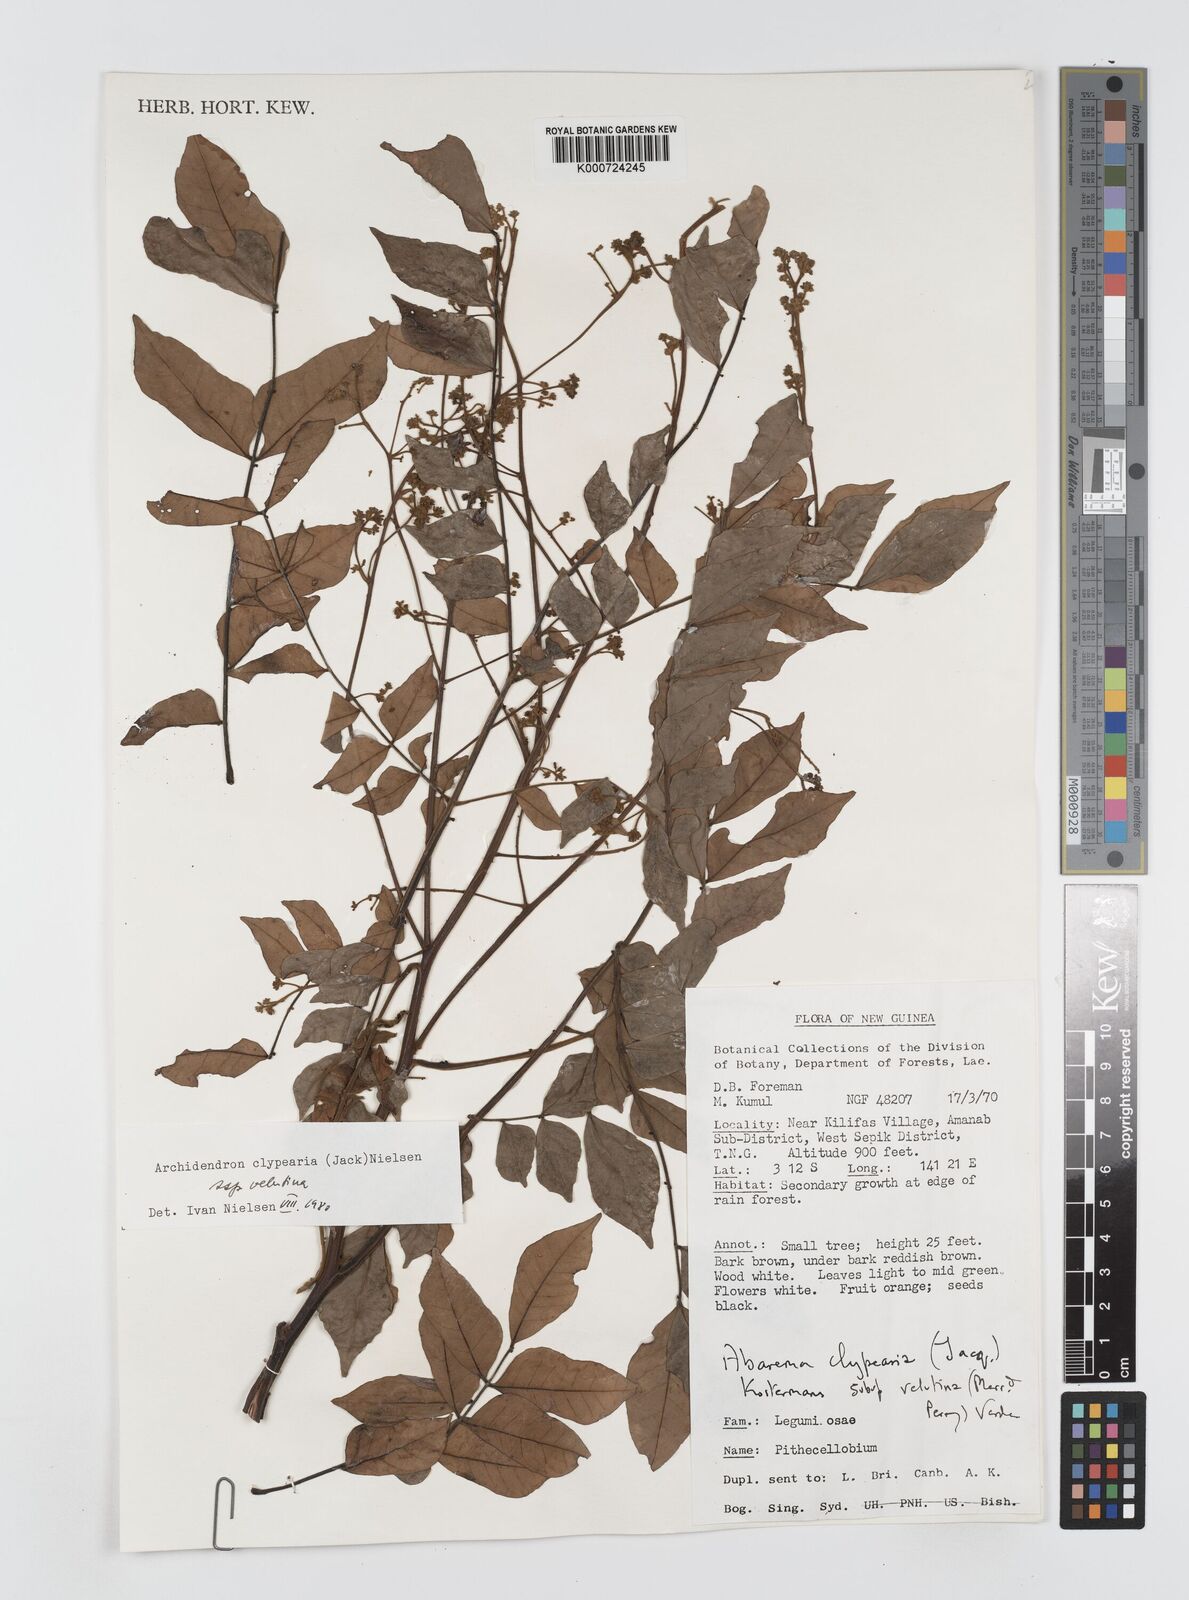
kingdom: Plantae
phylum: Tracheophyta
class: Magnoliopsida
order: Fabales
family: Fabaceae
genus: Archidendron
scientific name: Archidendron clypearia
